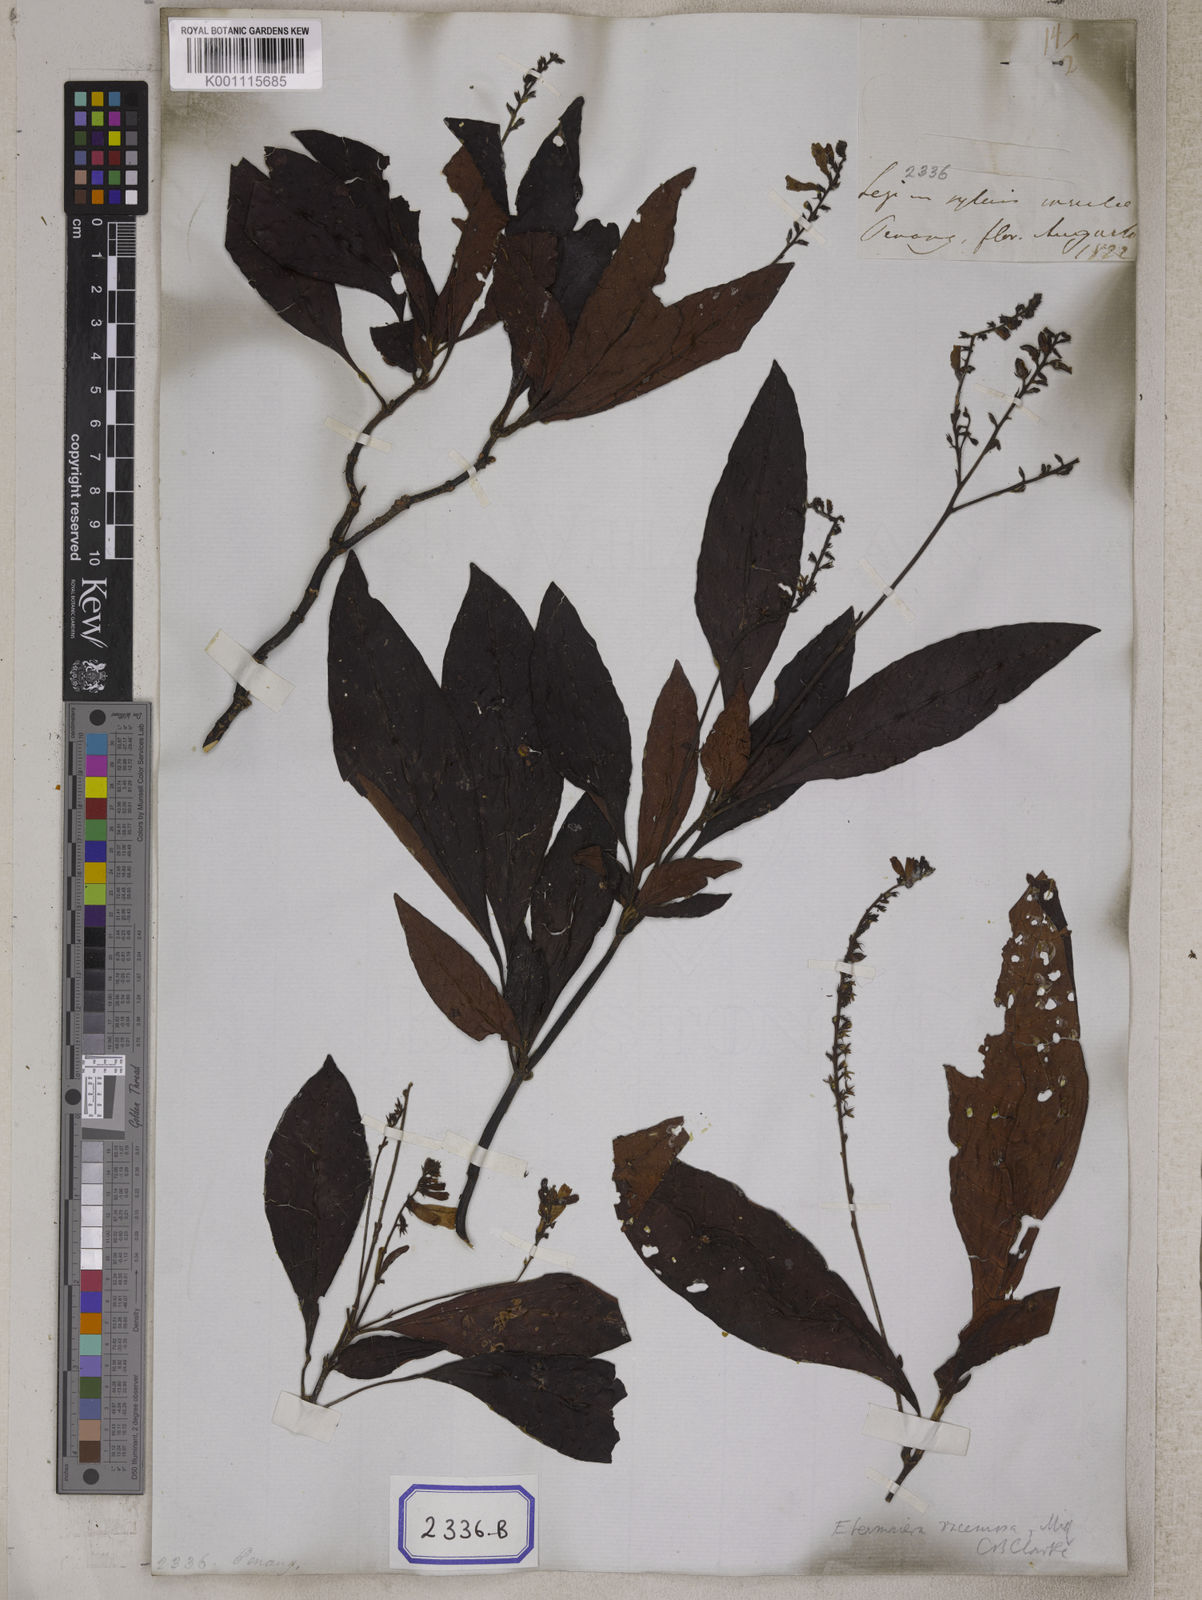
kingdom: Plantae
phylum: Tracheophyta
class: Magnoliopsida
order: Lamiales
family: Acanthaceae
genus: Staurogyne
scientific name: Staurogyne racemosa
